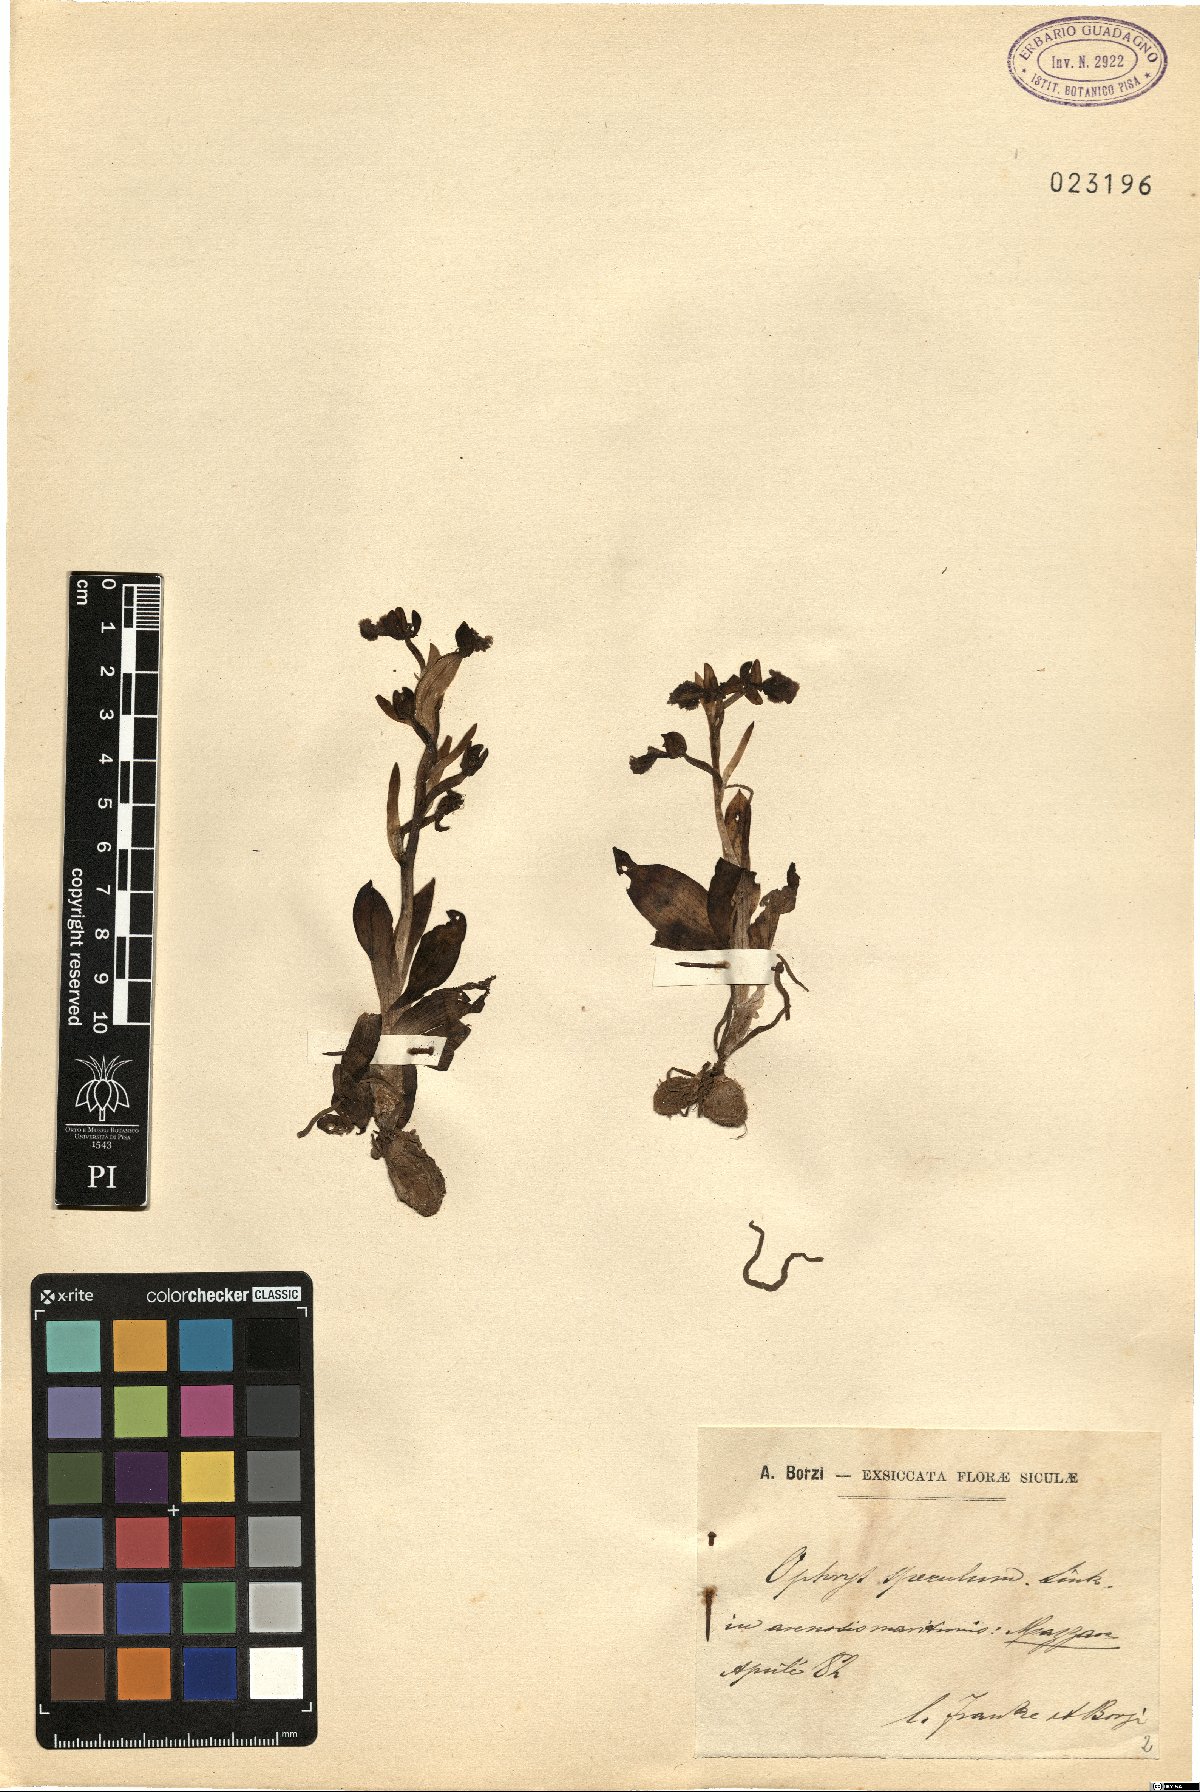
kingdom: Plantae
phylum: Tracheophyta
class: Liliopsida
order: Asparagales
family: Orchidaceae
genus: Ophrys
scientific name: Ophrys speculum
